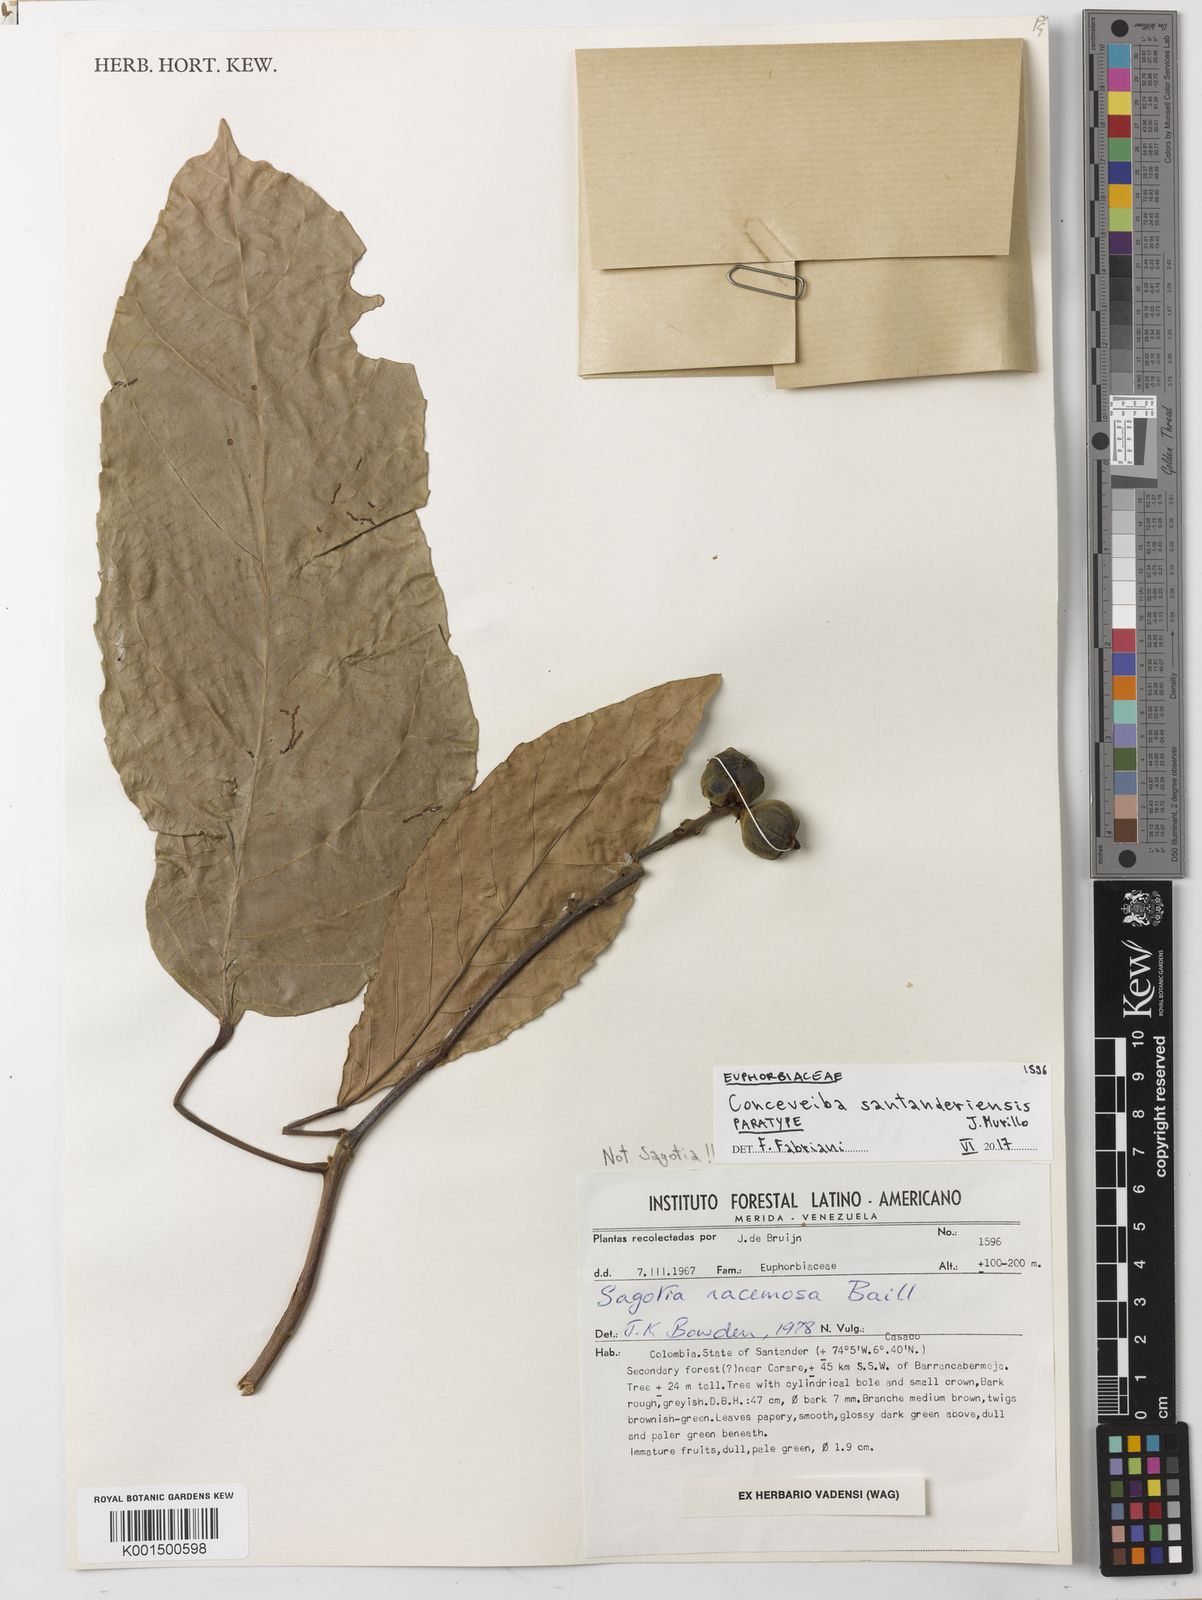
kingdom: Plantae
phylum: Tracheophyta
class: Magnoliopsida
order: Malpighiales
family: Euphorbiaceae
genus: Conceveiba
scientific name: Conceveiba santanderensis
